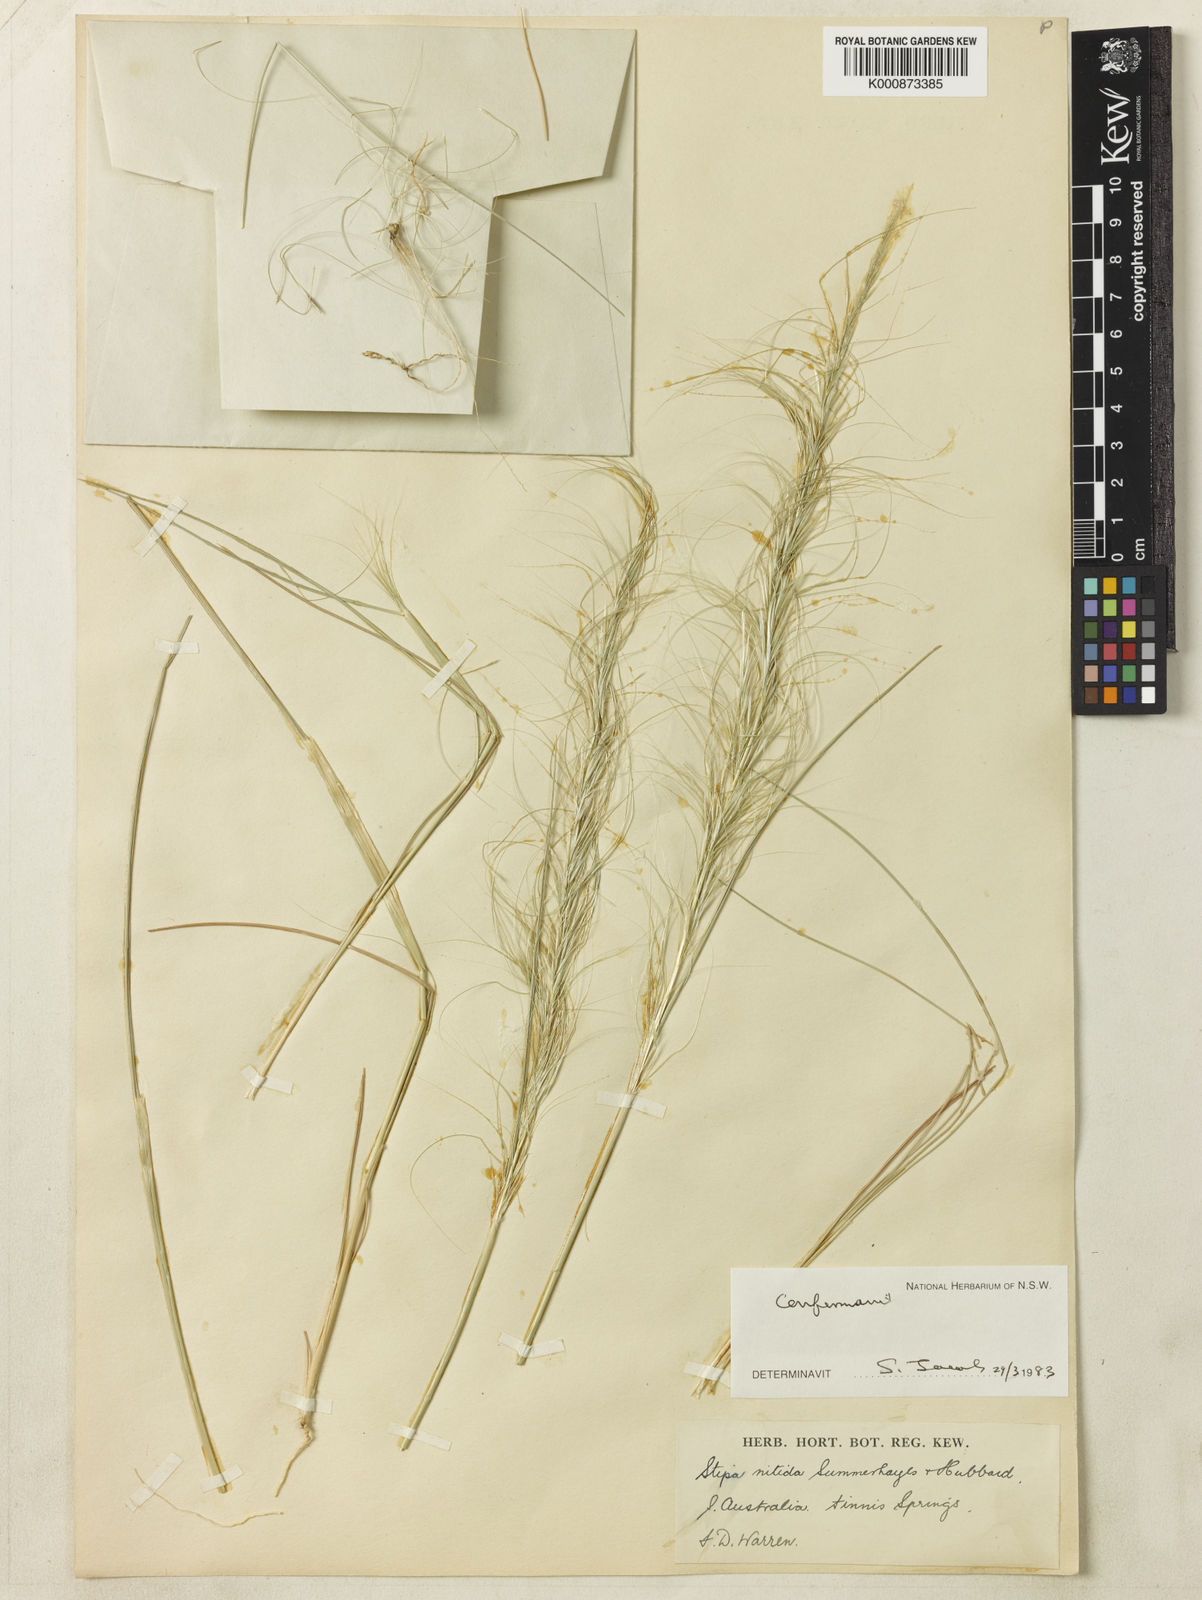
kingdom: Plantae
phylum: Tracheophyta
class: Liliopsida
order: Poales
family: Poaceae
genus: Austrostipa
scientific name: Austrostipa nitida
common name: Balcarra grass
